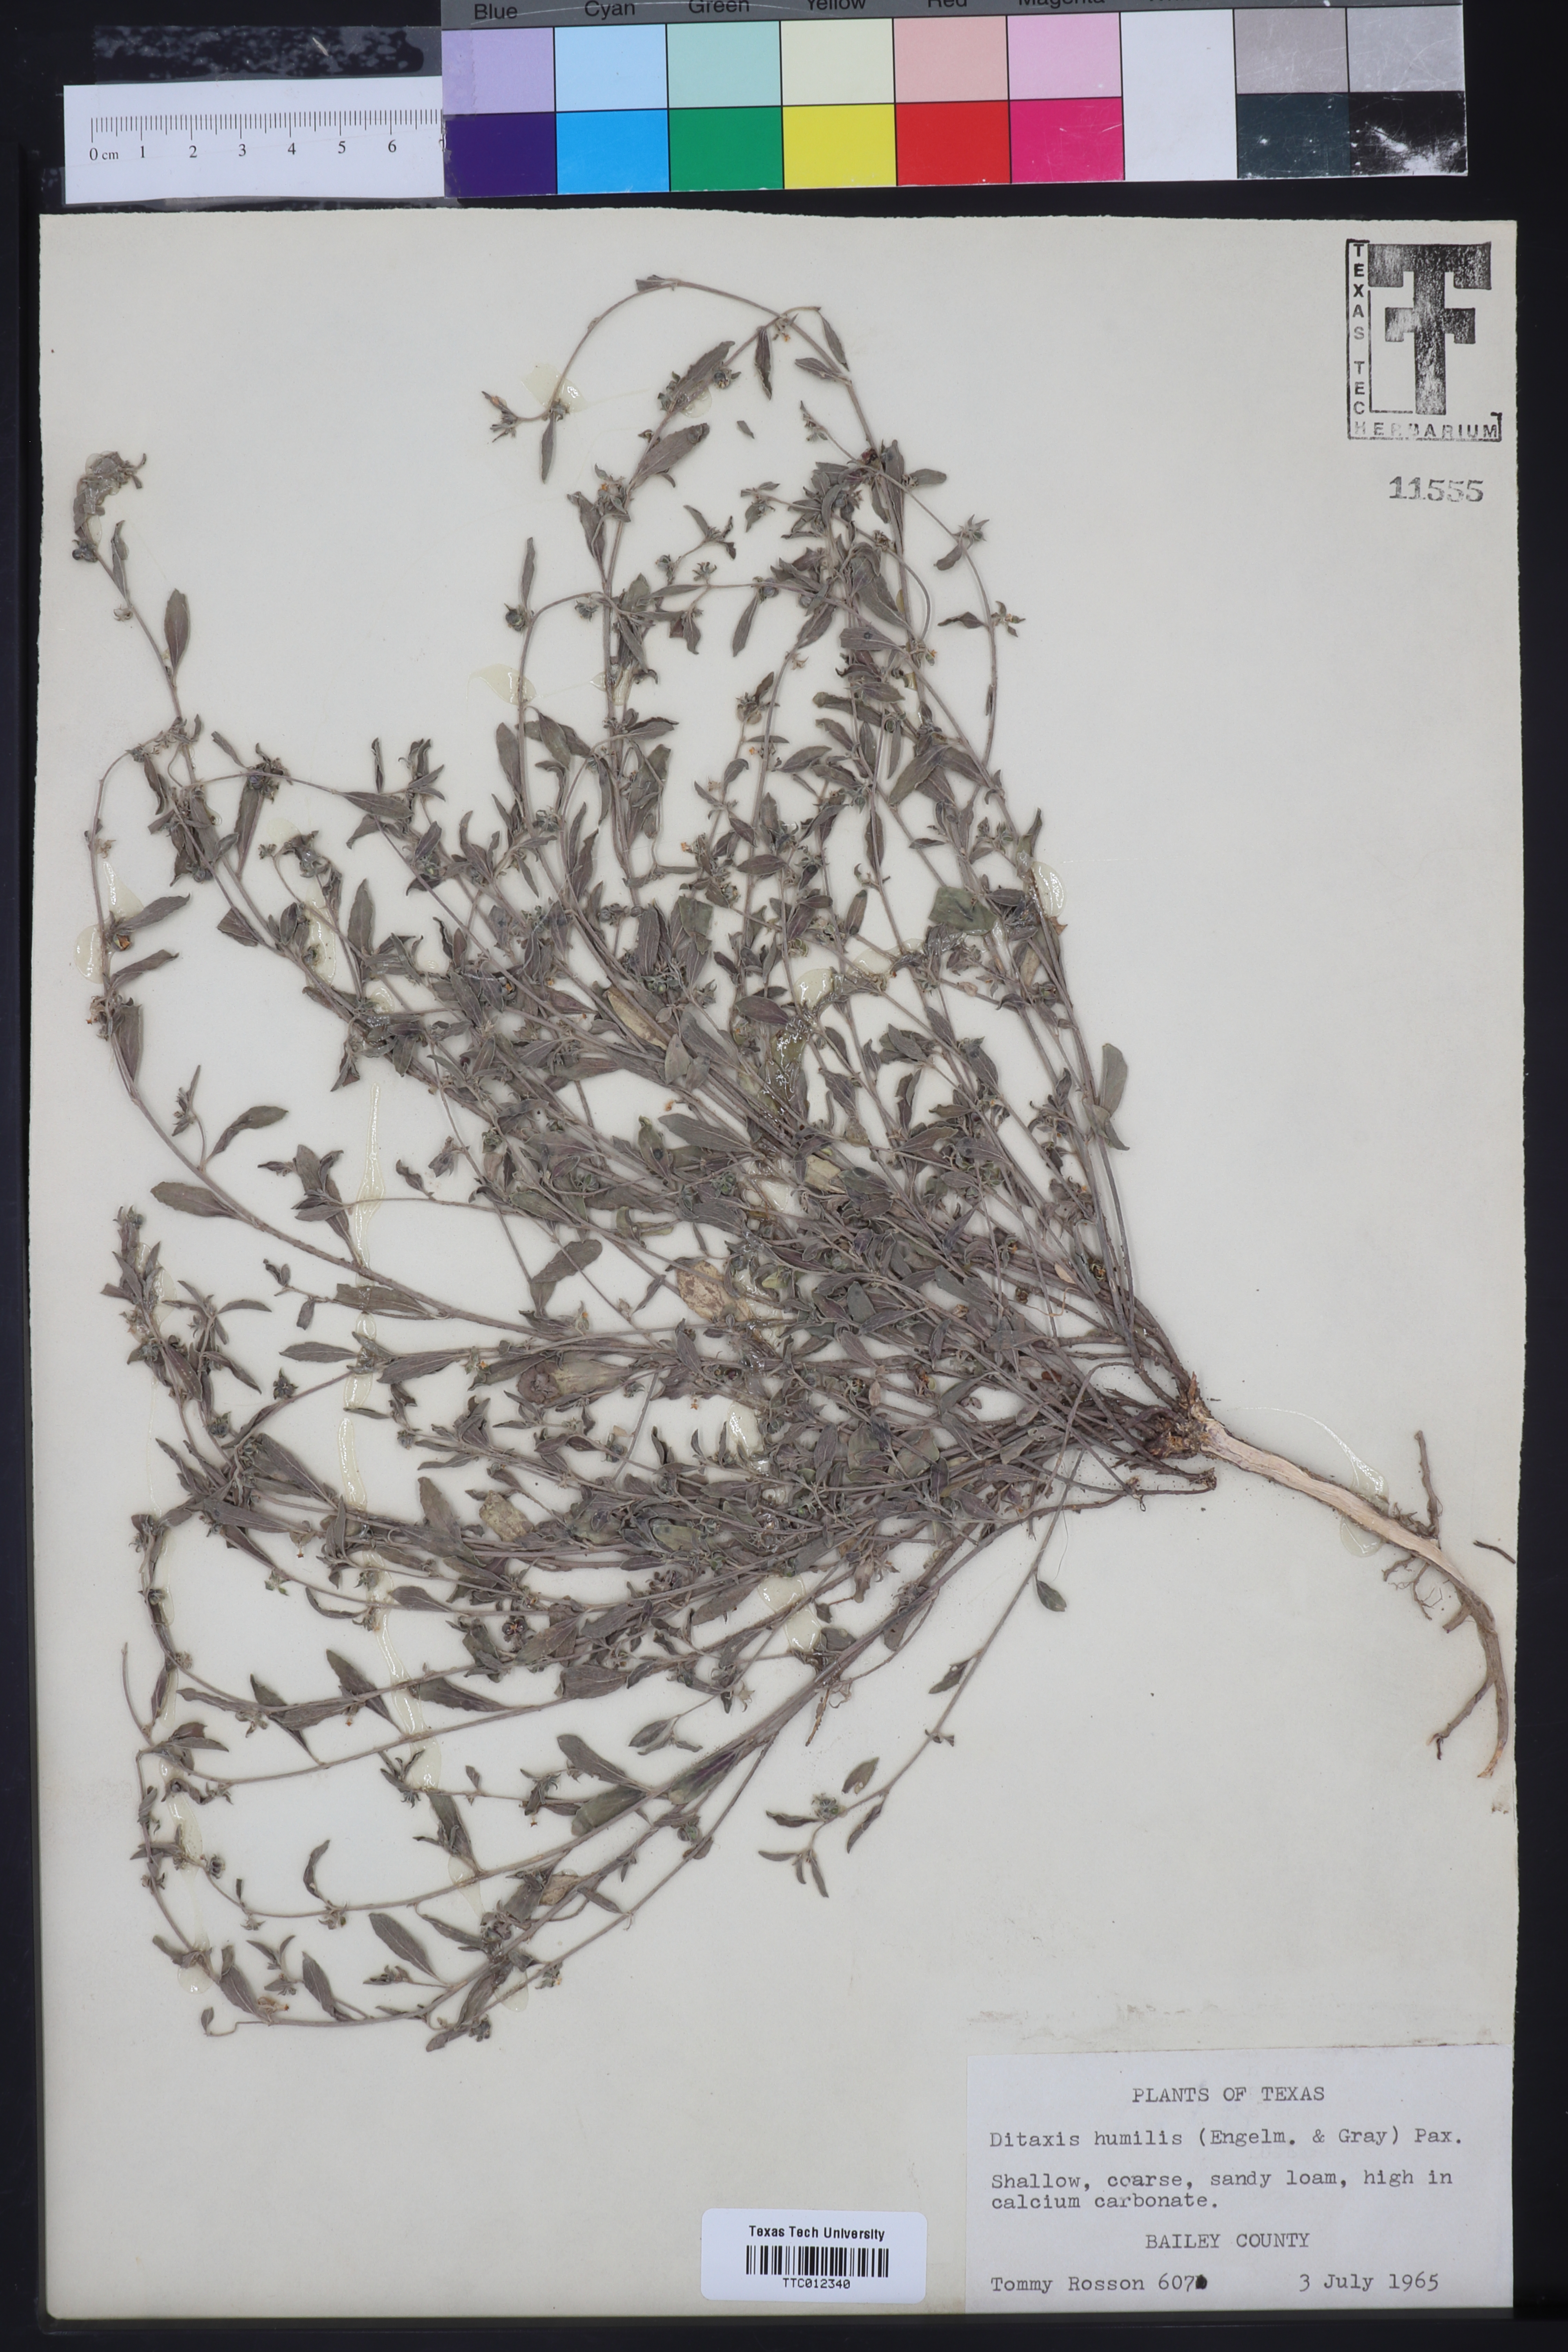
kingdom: Plantae
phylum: Tracheophyta
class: Magnoliopsida
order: Malpighiales
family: Euphorbiaceae
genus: Ditaxis
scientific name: Ditaxis humilis
